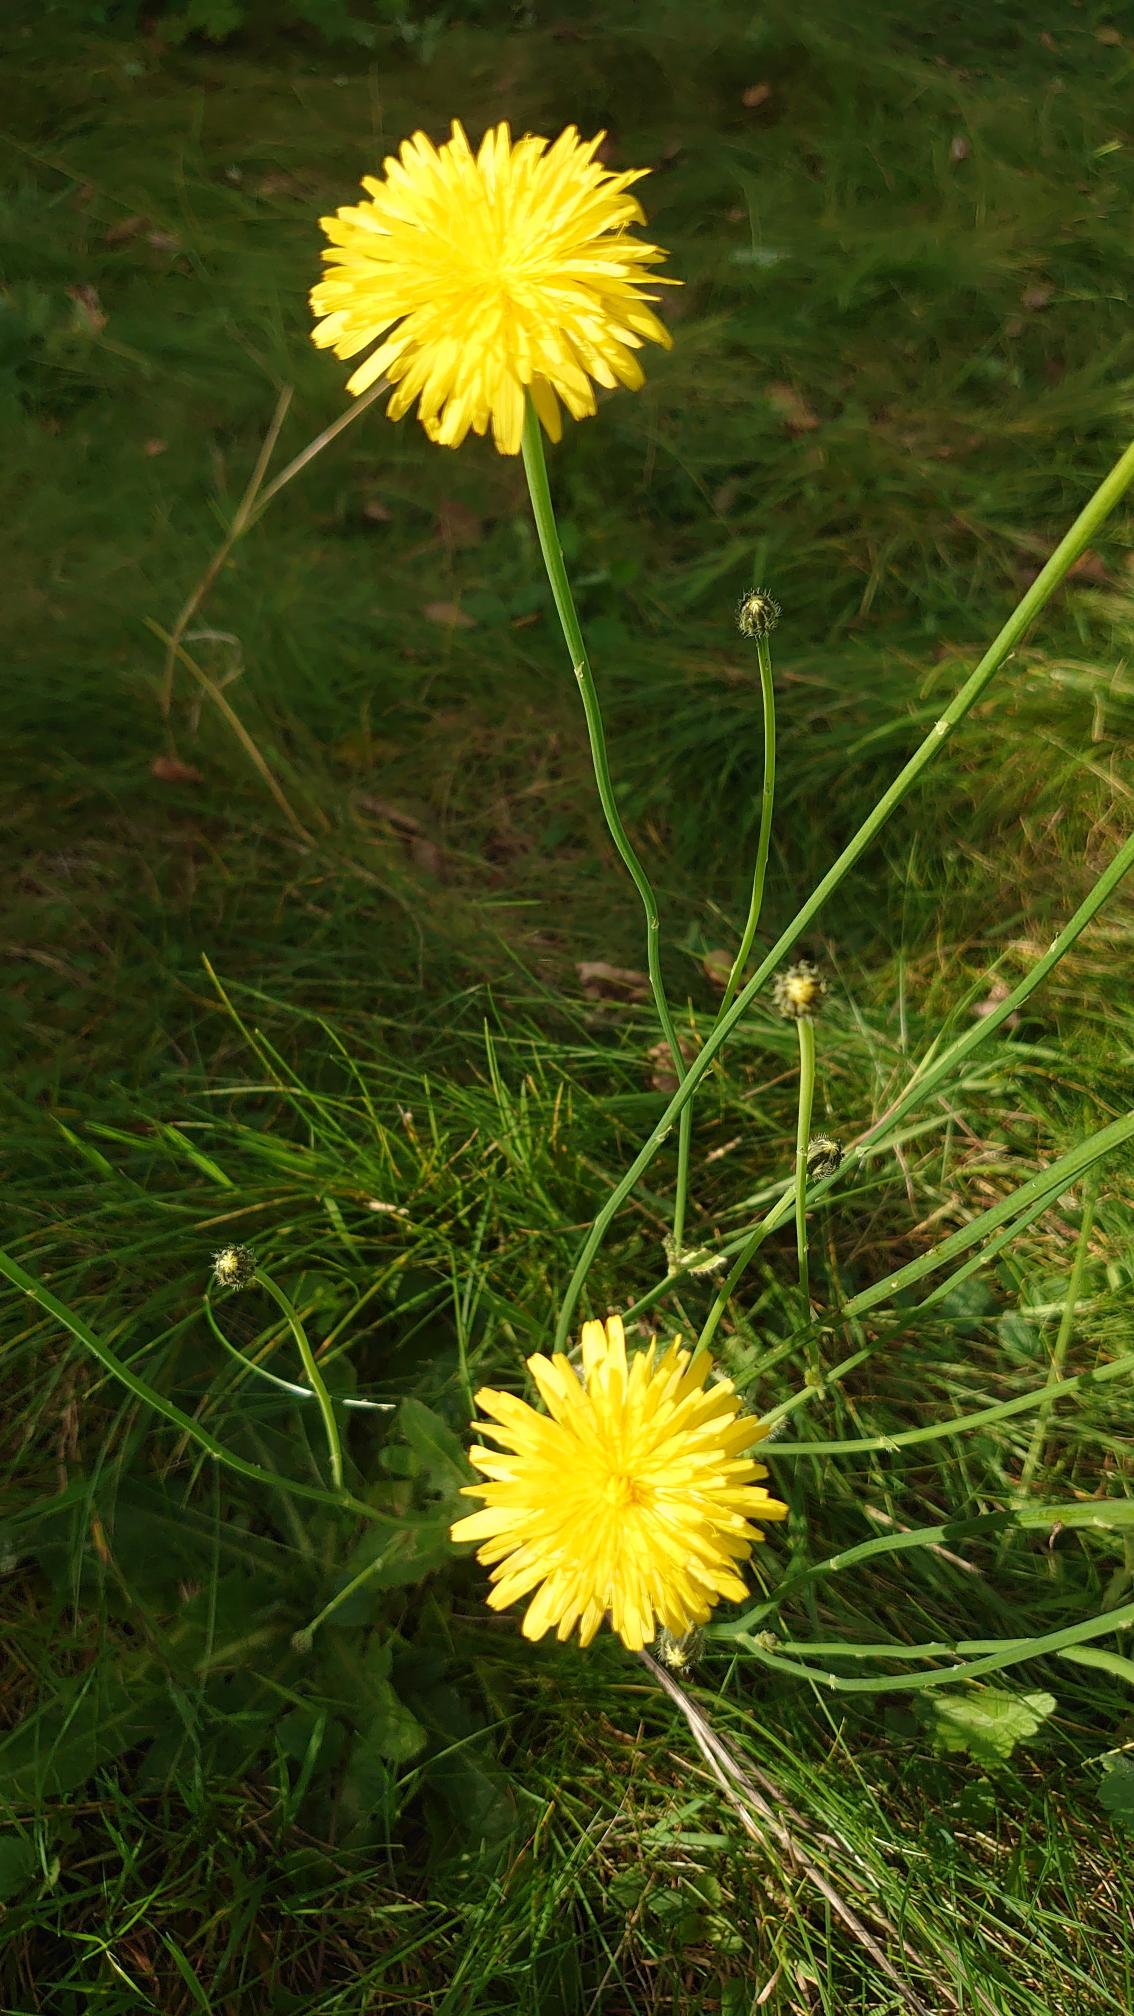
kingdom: Plantae
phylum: Tracheophyta
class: Magnoliopsida
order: Asterales
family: Asteraceae
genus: Hypochaeris
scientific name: Hypochaeris radicata
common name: Almindelig kongepen
